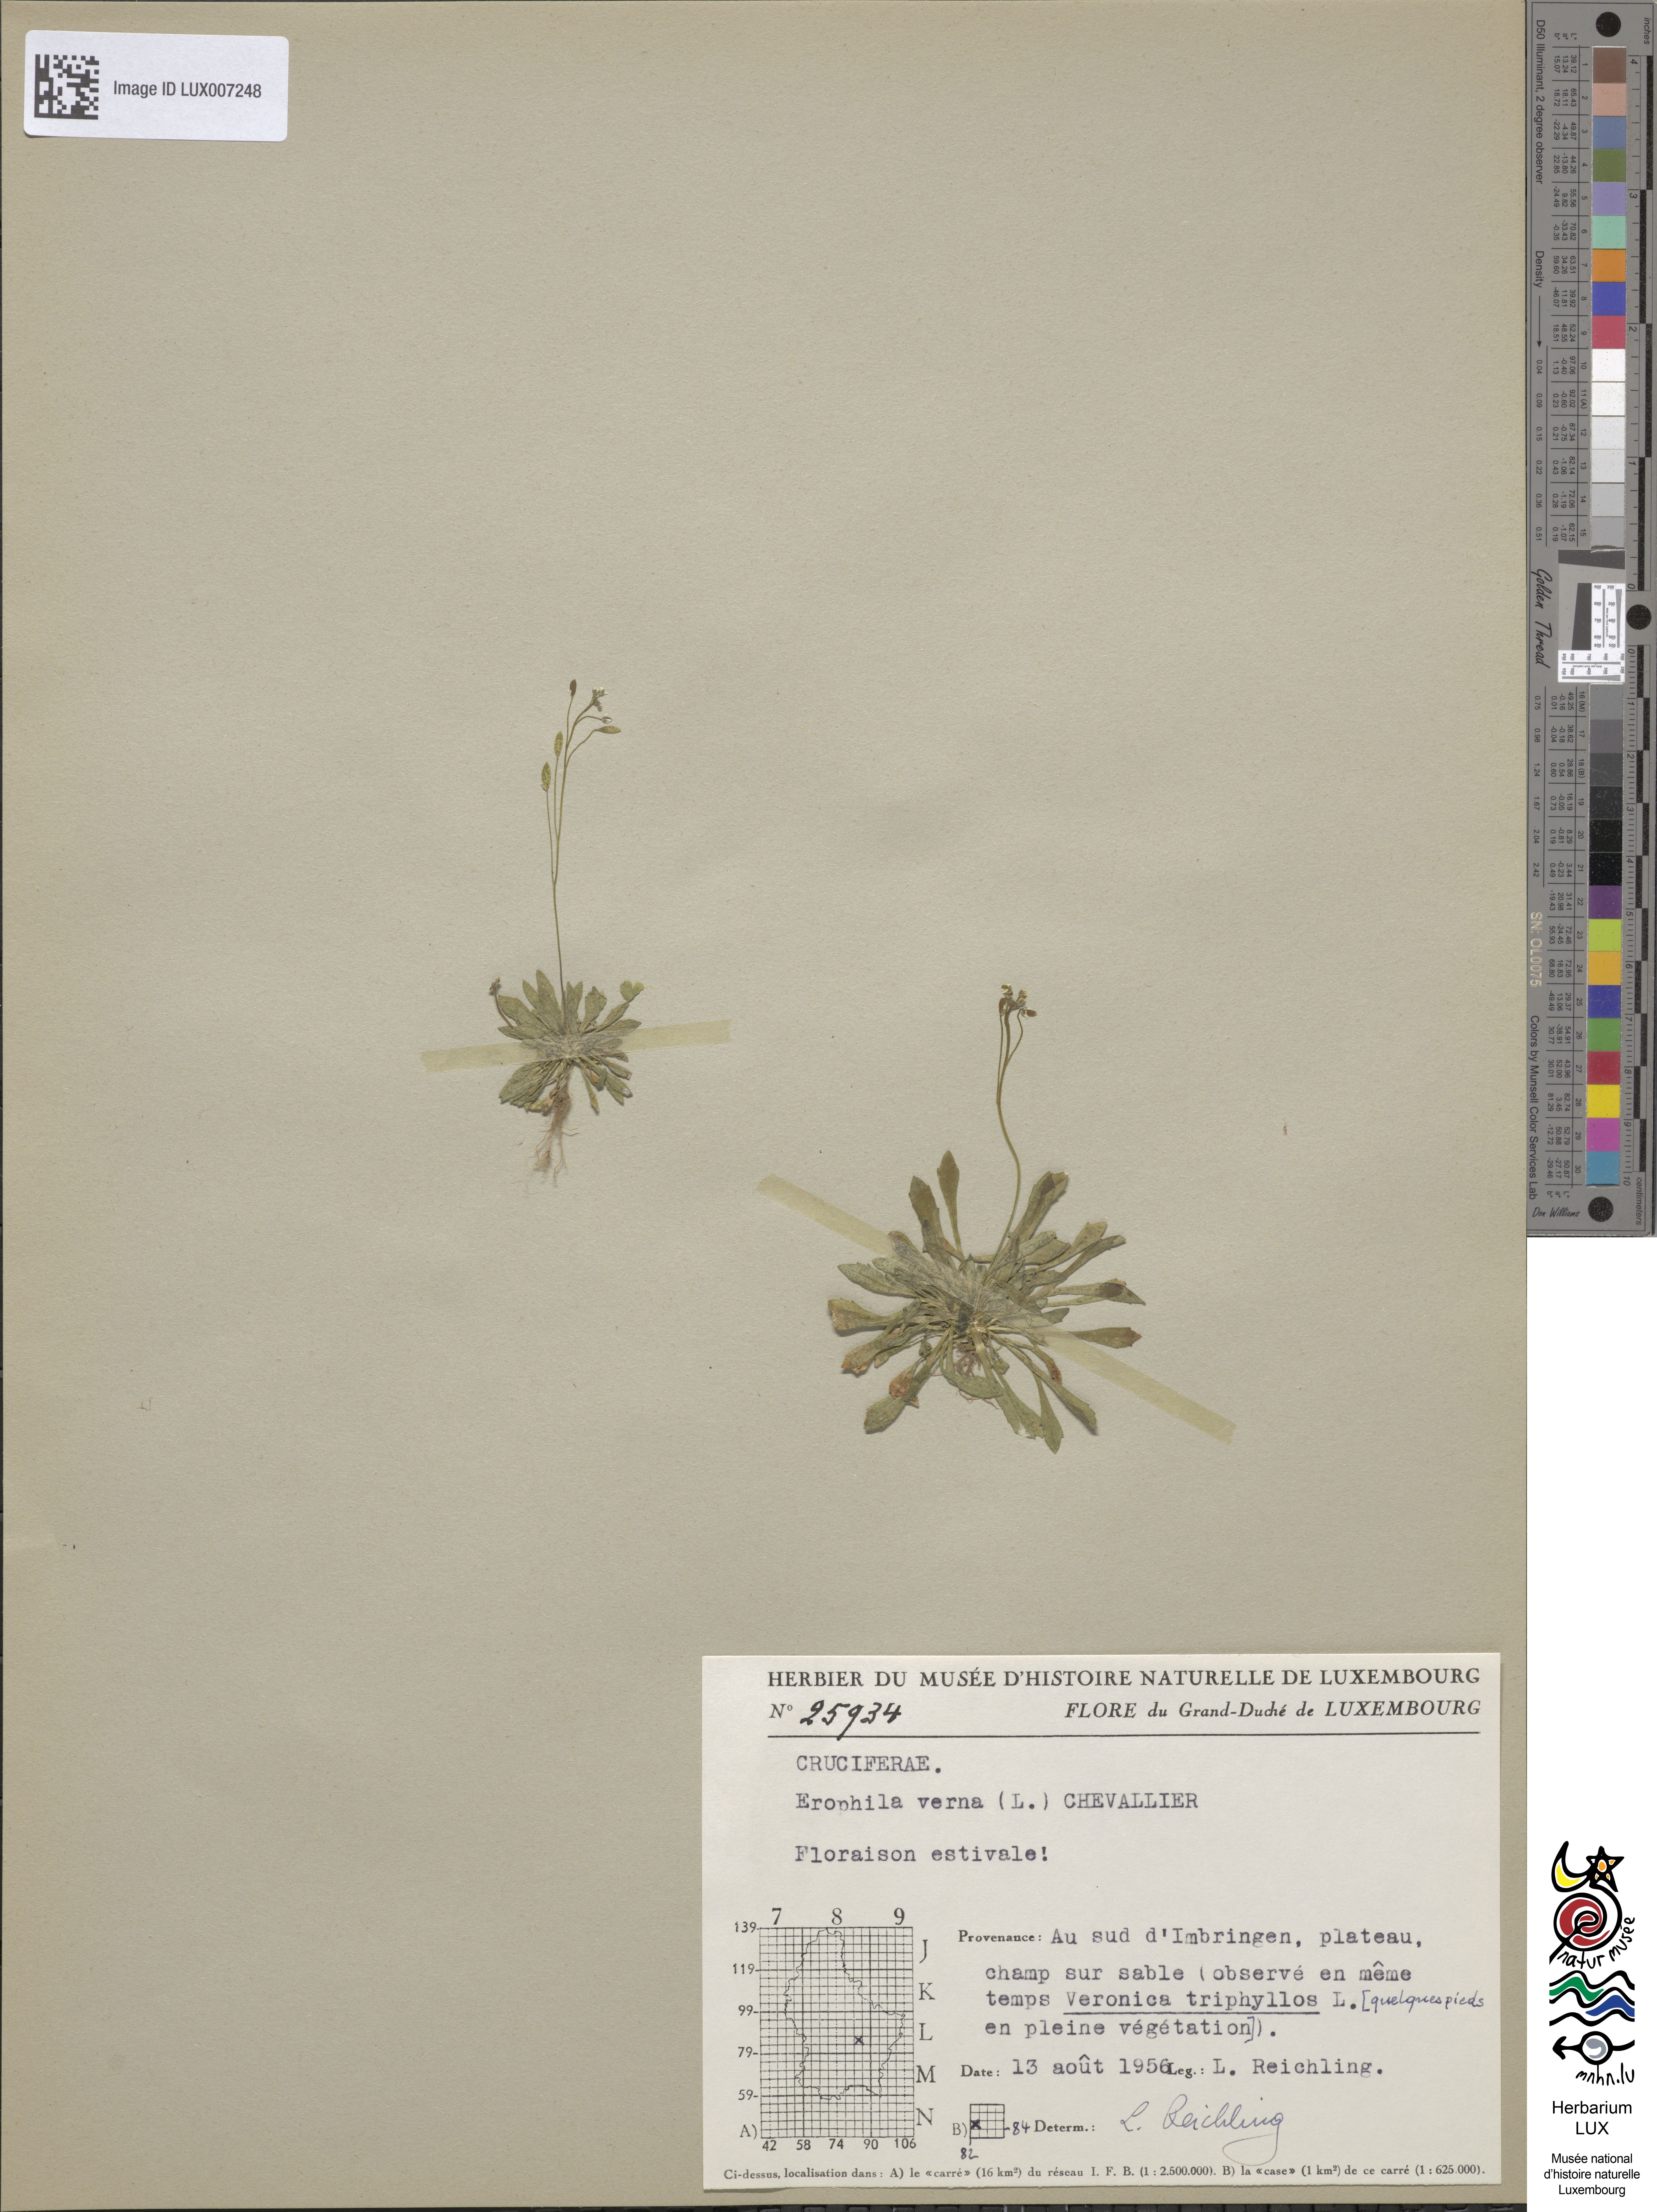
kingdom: Plantae
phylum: Tracheophyta
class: Magnoliopsida
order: Brassicales
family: Brassicaceae
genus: Draba
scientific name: Draba verna
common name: Spring draba
